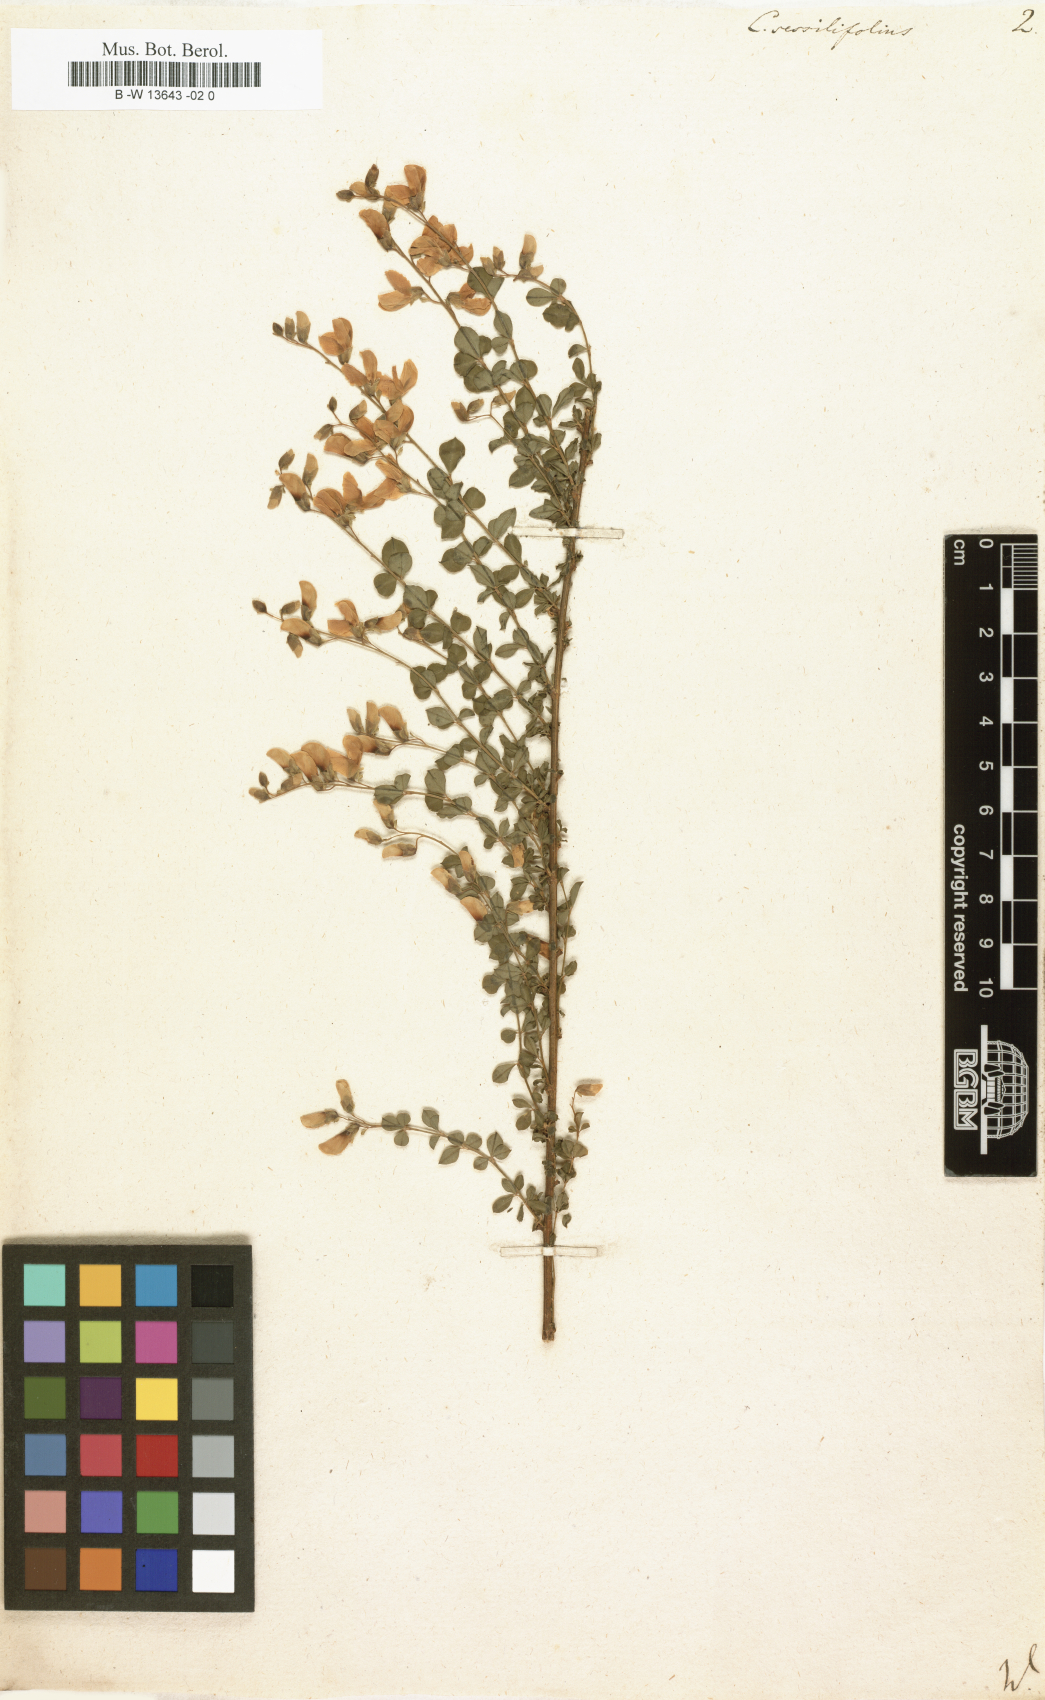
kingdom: Plantae
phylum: Tracheophyta
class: Magnoliopsida
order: Fabales
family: Fabaceae
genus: Cytisophyllum
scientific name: Cytisophyllum sessilifolium
